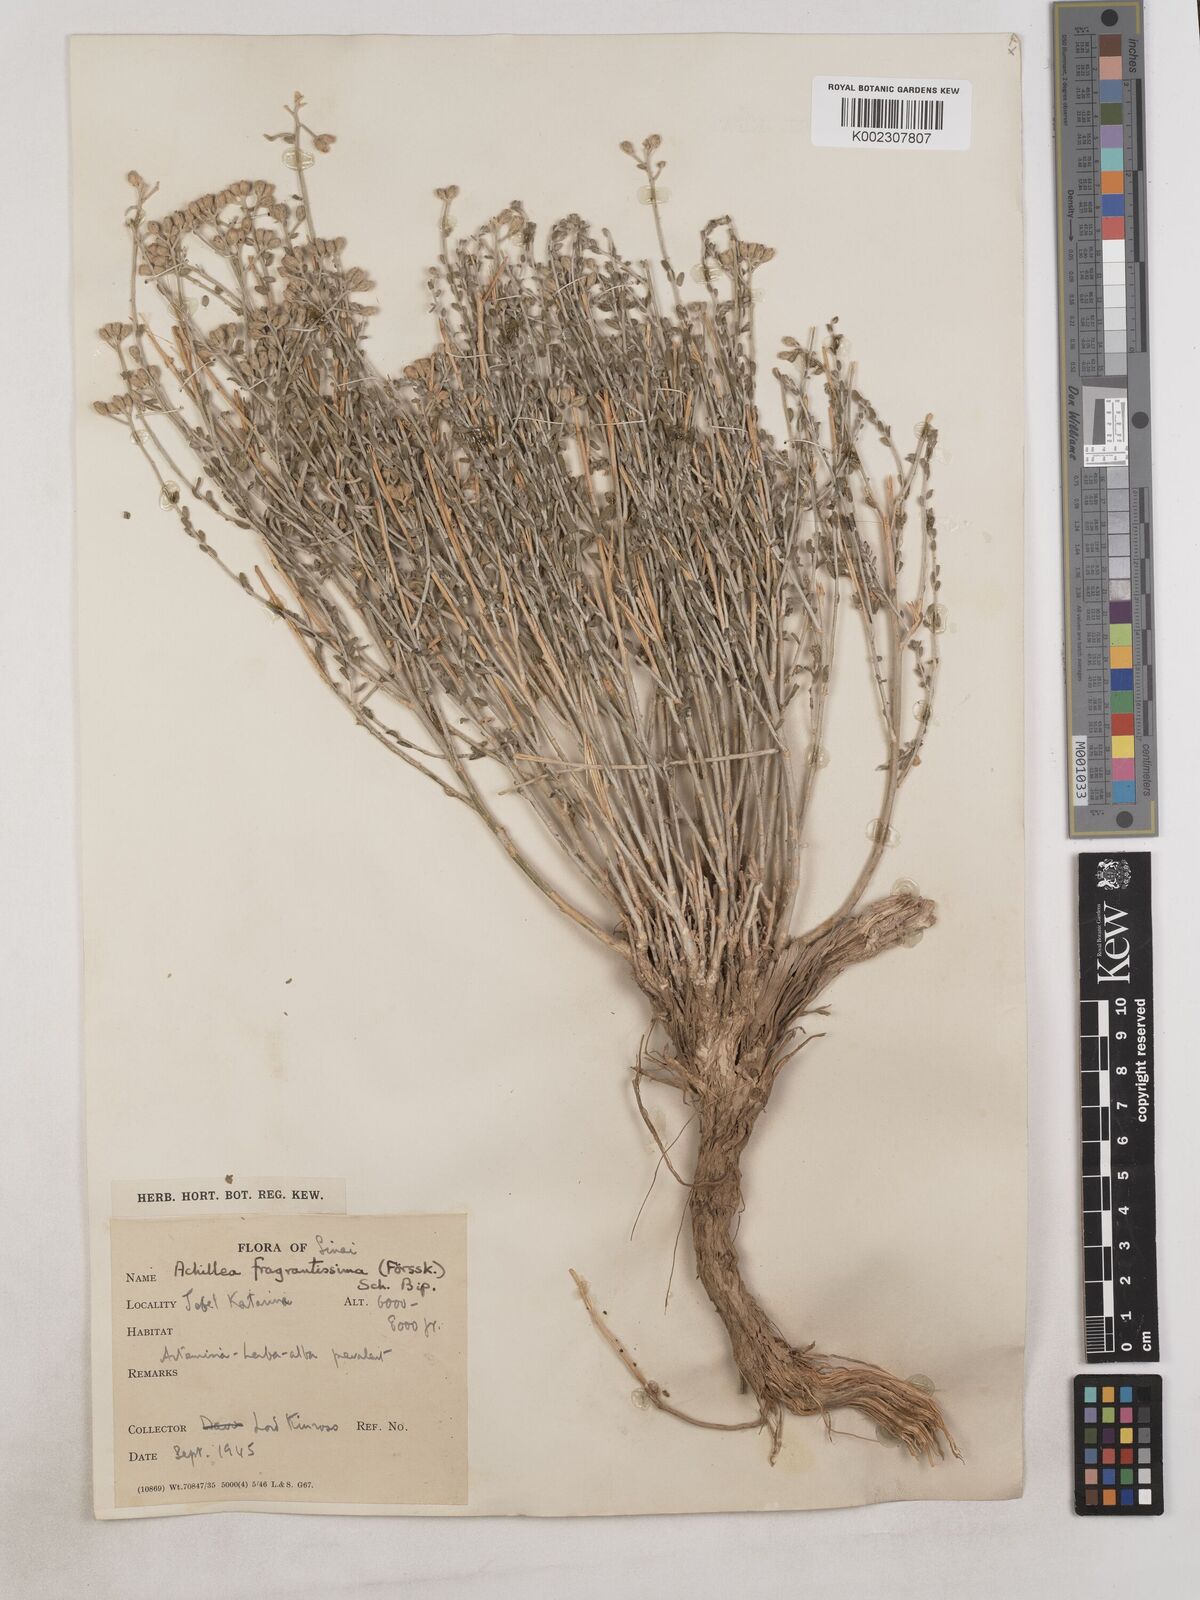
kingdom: Plantae
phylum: Tracheophyta
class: Magnoliopsida
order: Asterales
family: Asteraceae
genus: Achillea
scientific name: Achillea fragrantissima
